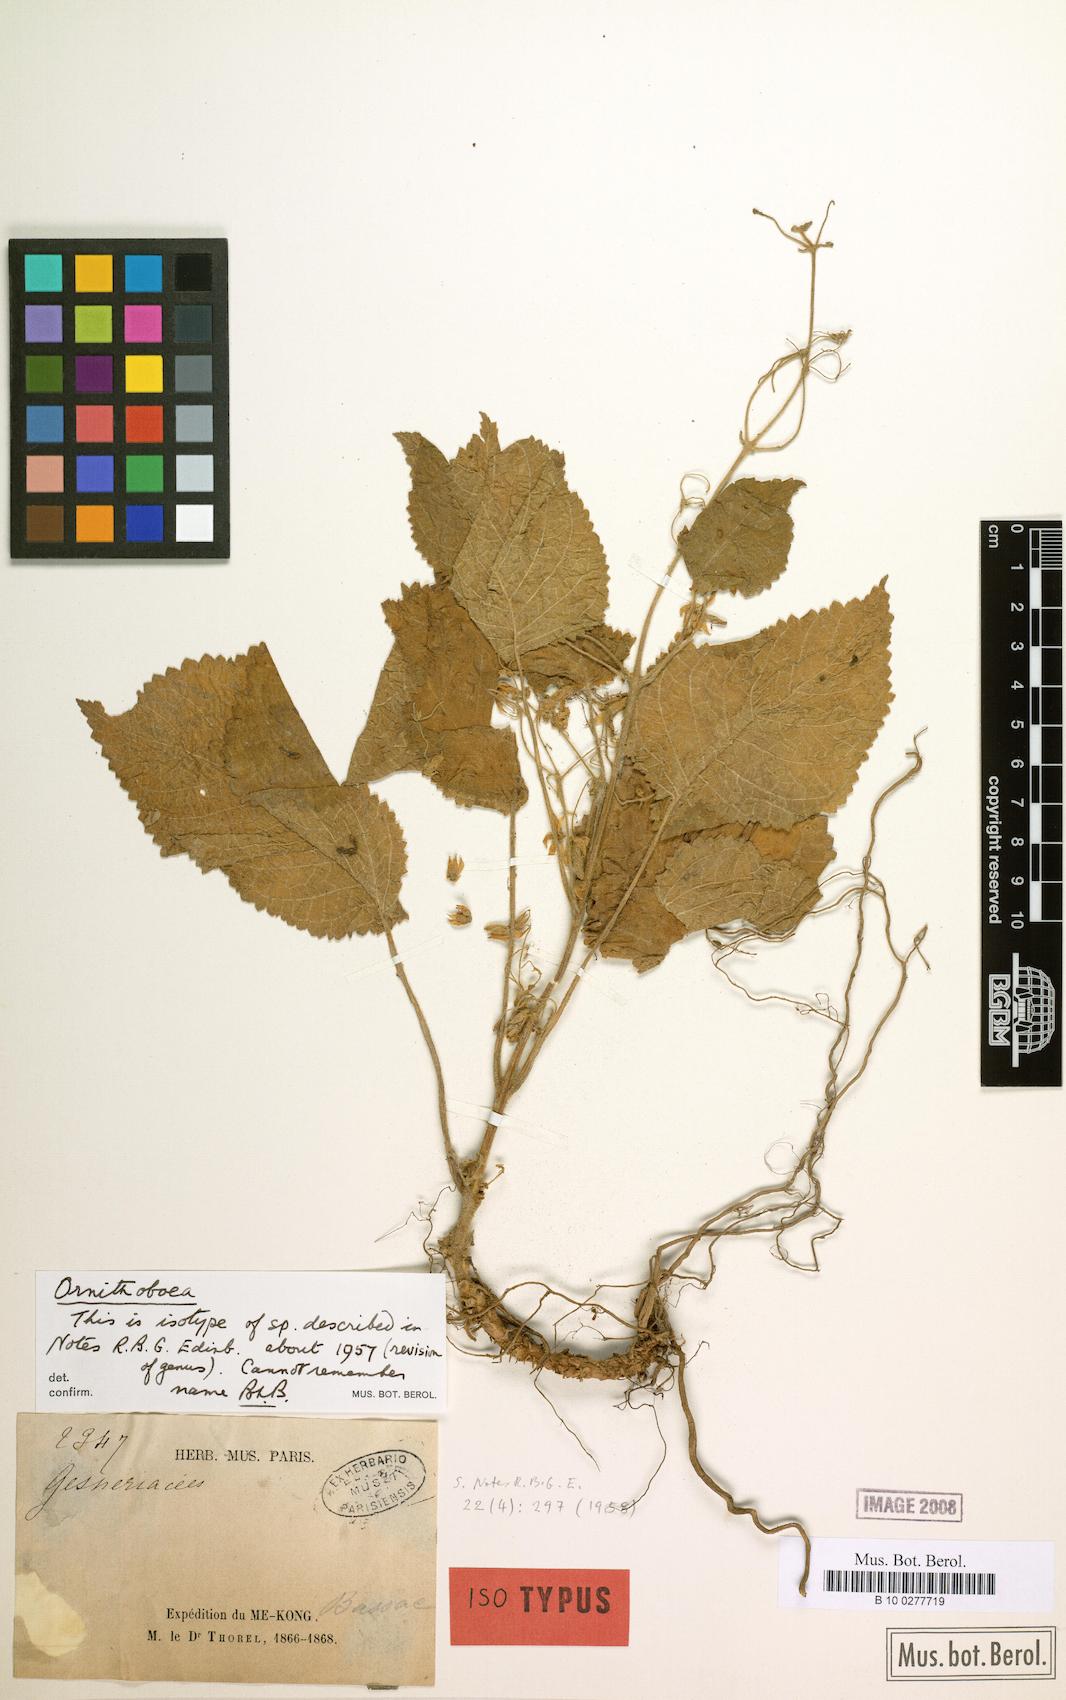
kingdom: Plantae
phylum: Tracheophyta
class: Magnoliopsida
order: Lamiales
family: Gesneriaceae
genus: Ornithoboea
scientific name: Ornithoboea lacei
